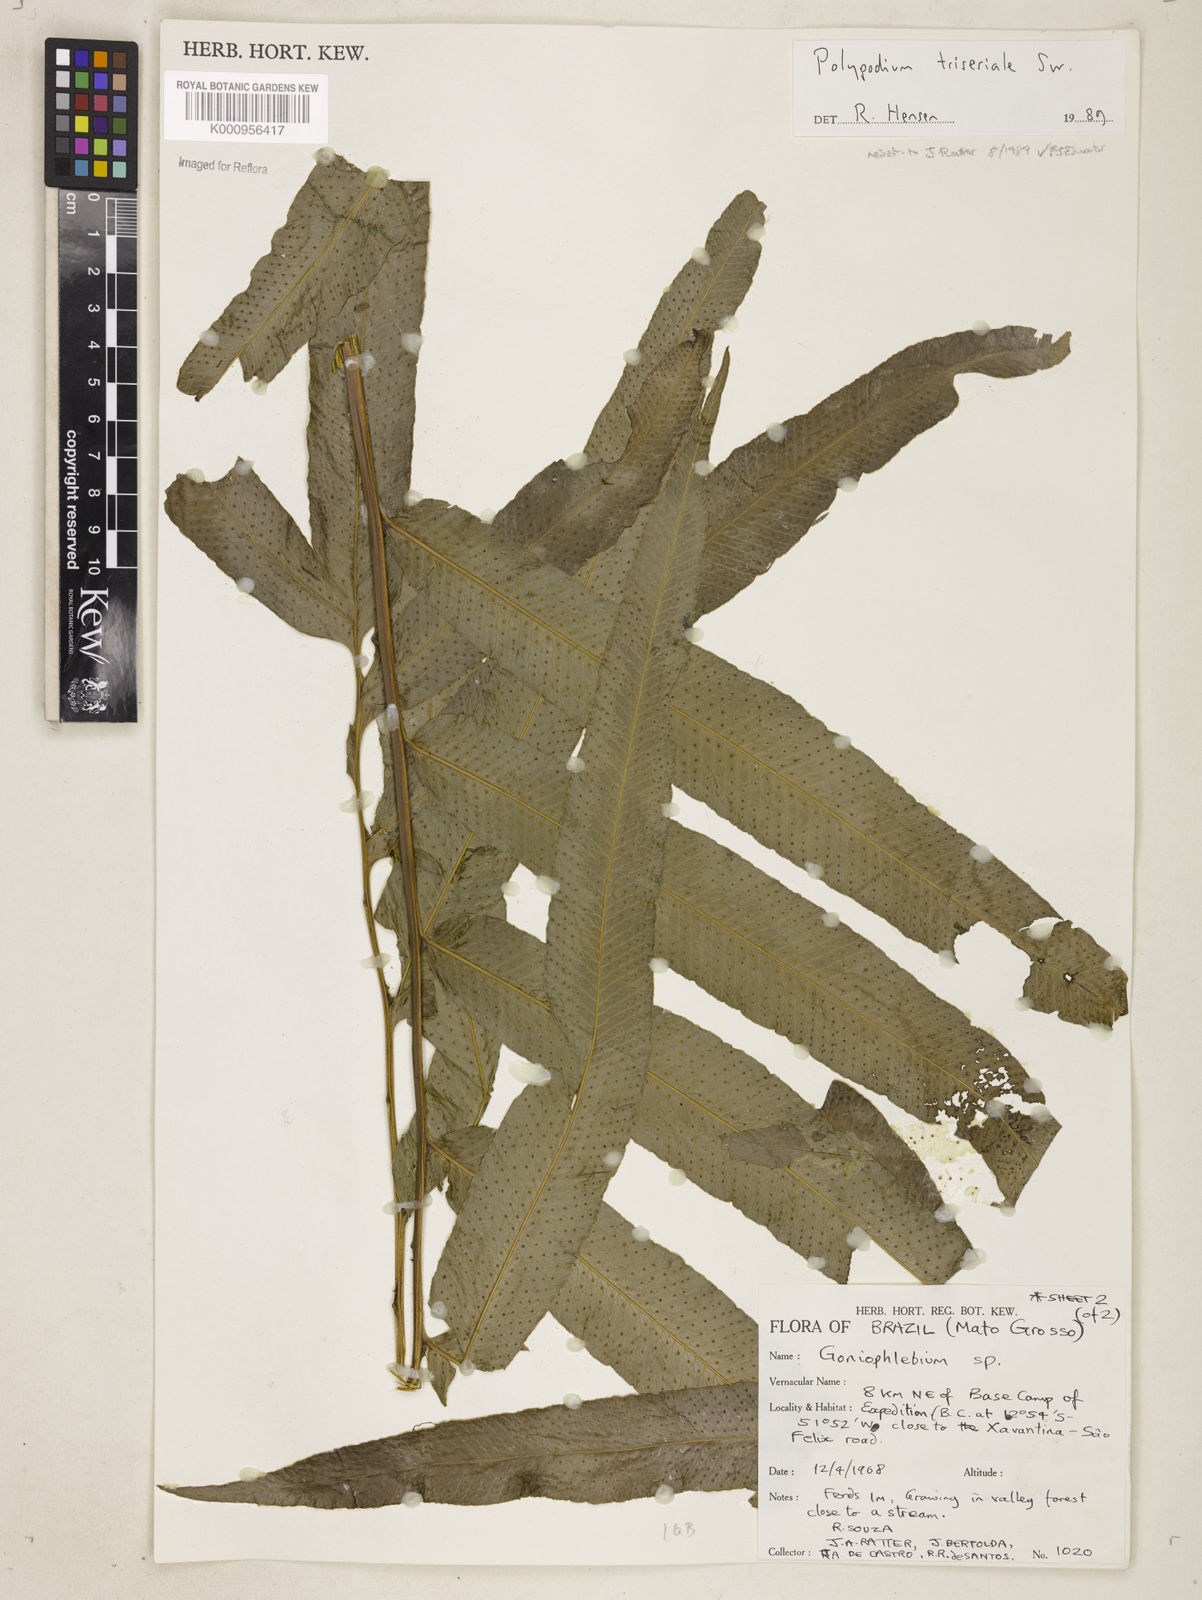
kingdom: Plantae
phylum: Tracheophyta
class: Polypodiopsida
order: Polypodiales
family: Polypodiaceae
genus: Serpocaulon
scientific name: Serpocaulon triseriale
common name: Angle-vein fern
